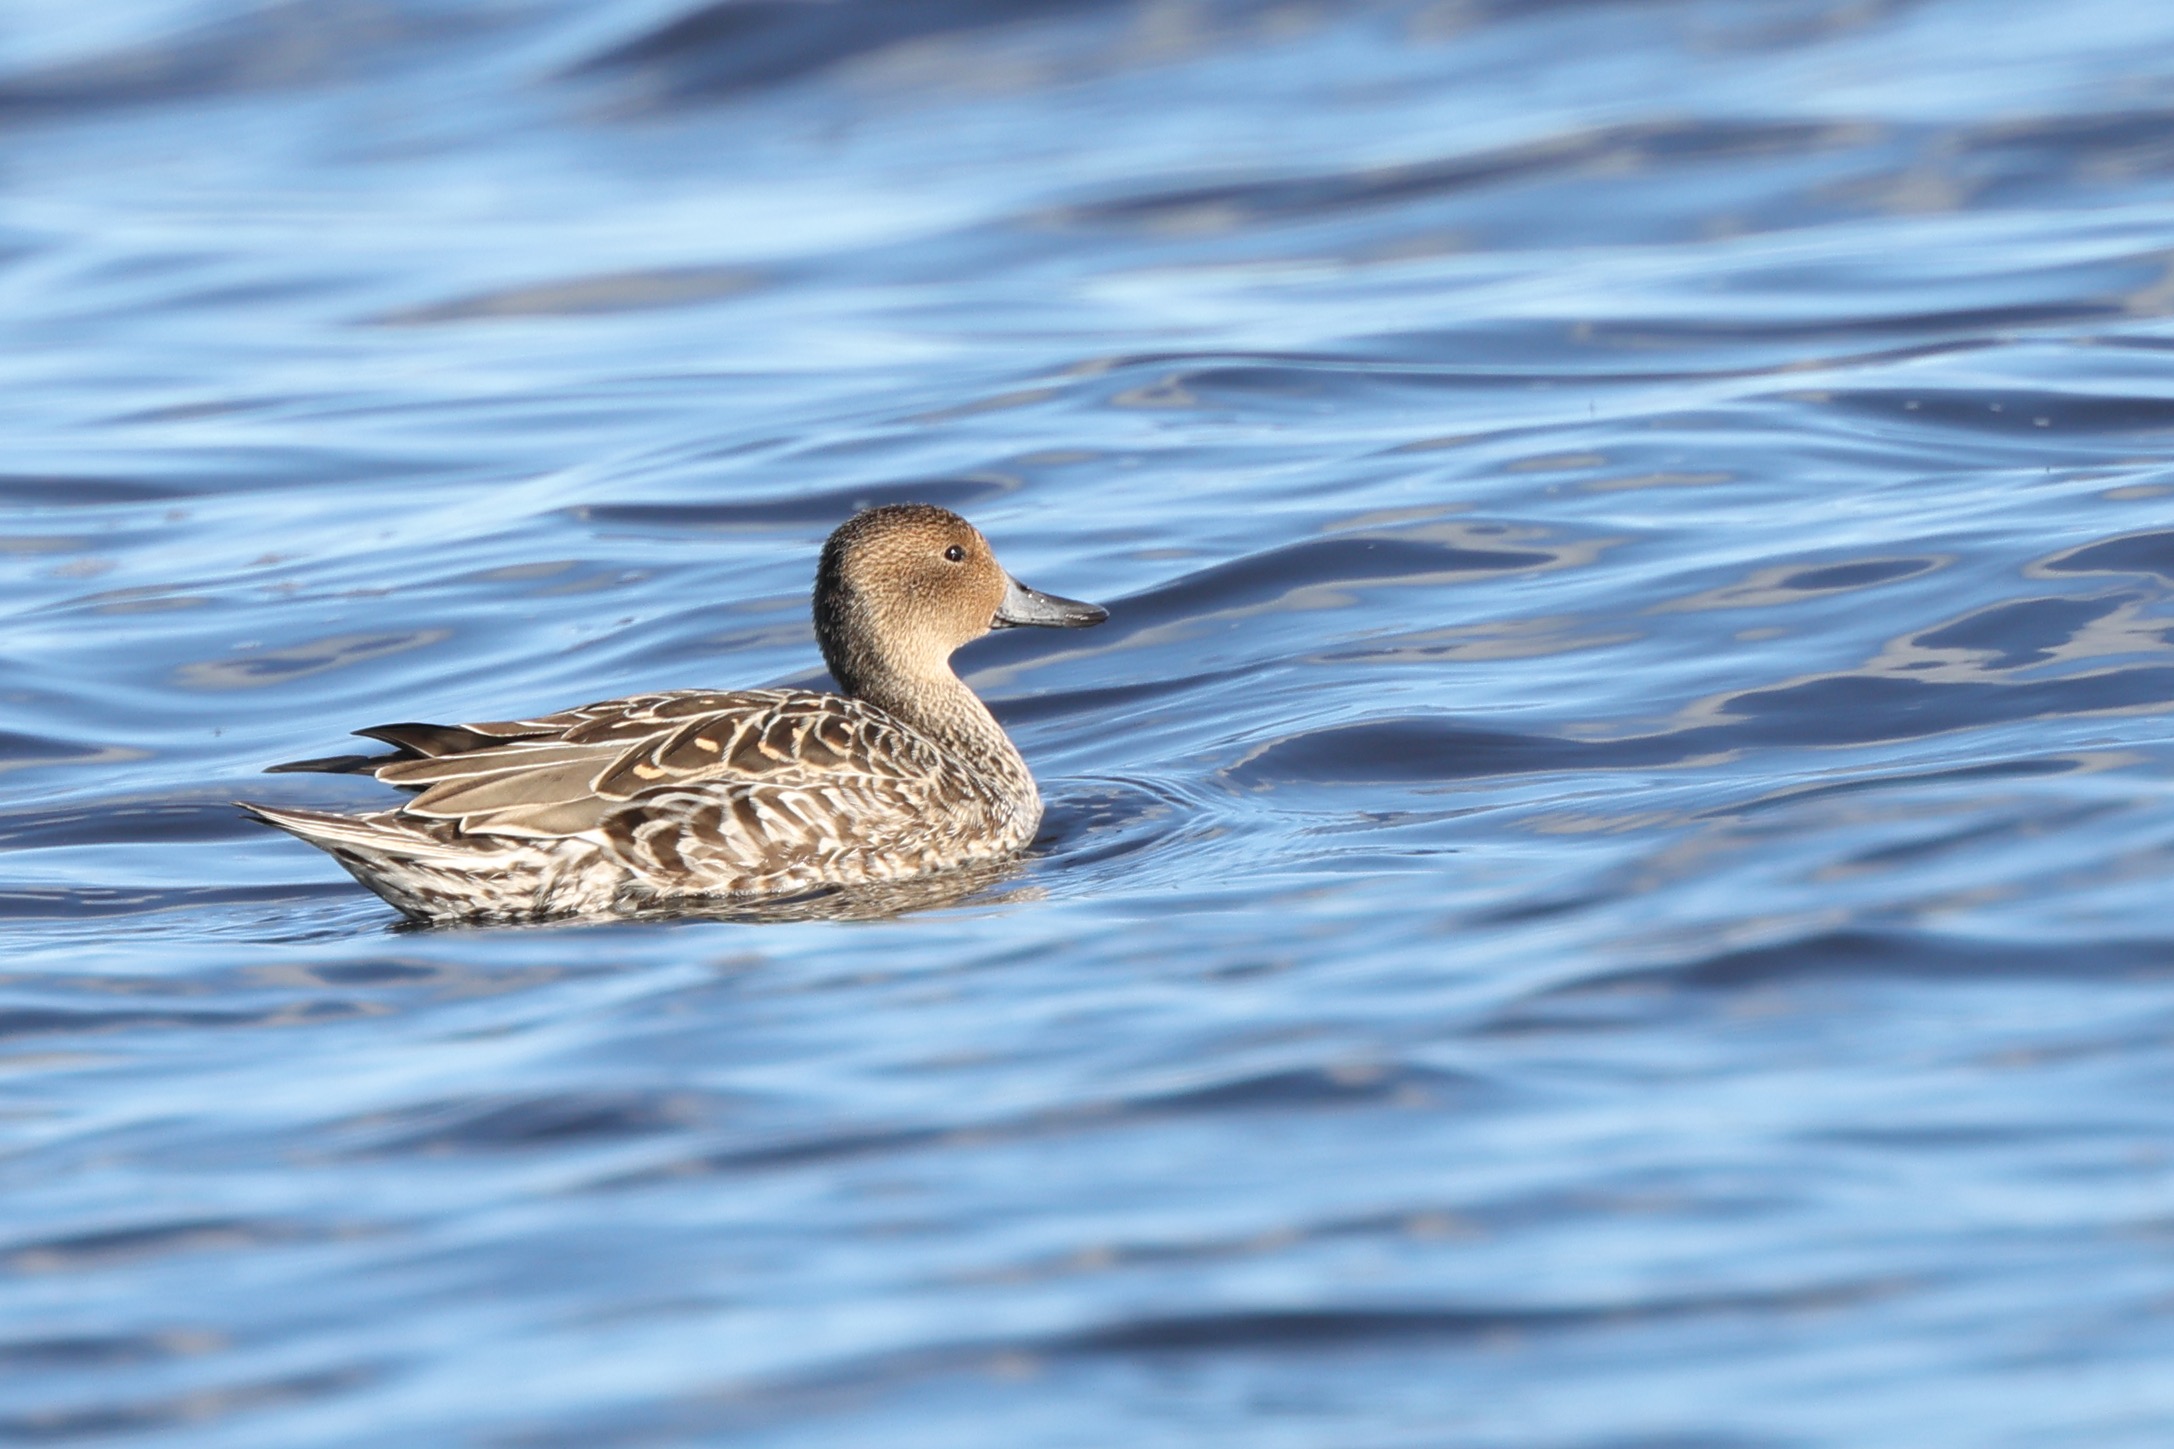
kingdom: Animalia
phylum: Chordata
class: Aves
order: Anseriformes
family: Anatidae
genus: Anas
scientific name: Anas acuta
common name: Spidsand
